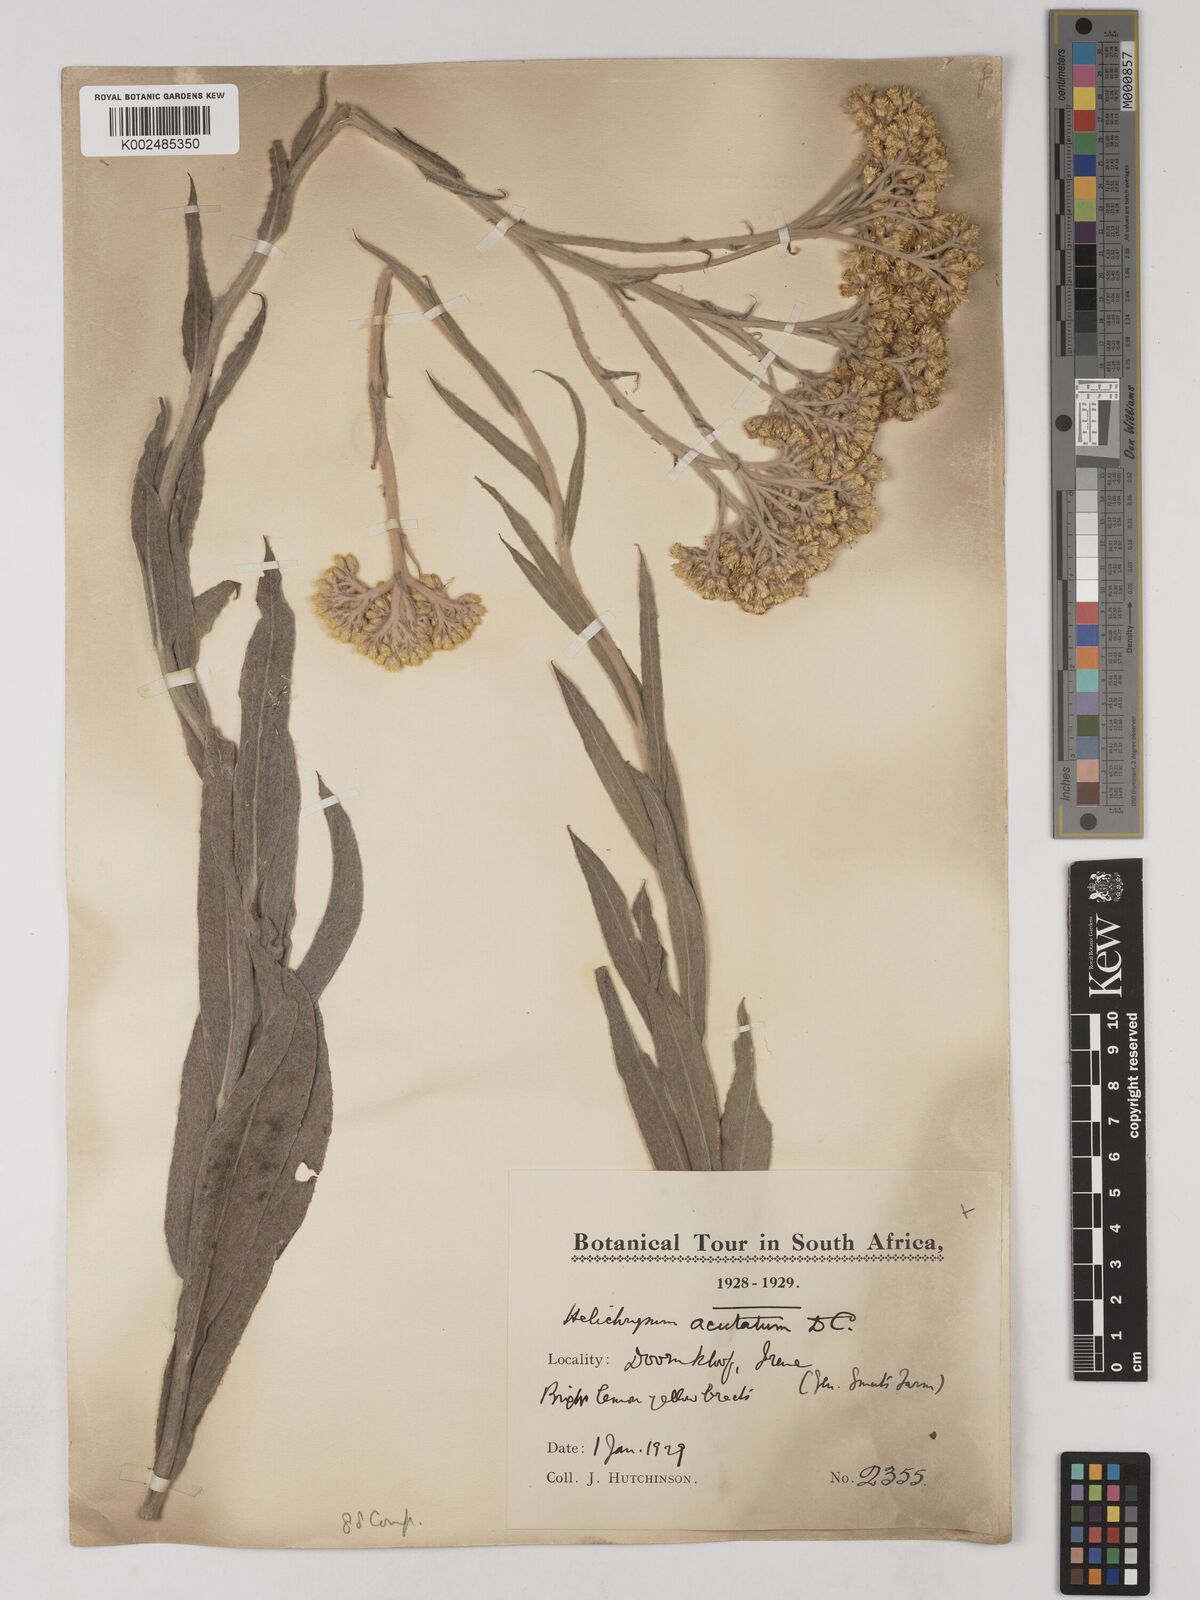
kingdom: Plantae
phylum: Tracheophyta
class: Magnoliopsida
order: Asterales
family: Asteraceae
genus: Helichrysum
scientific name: Helichrysum acutatum
